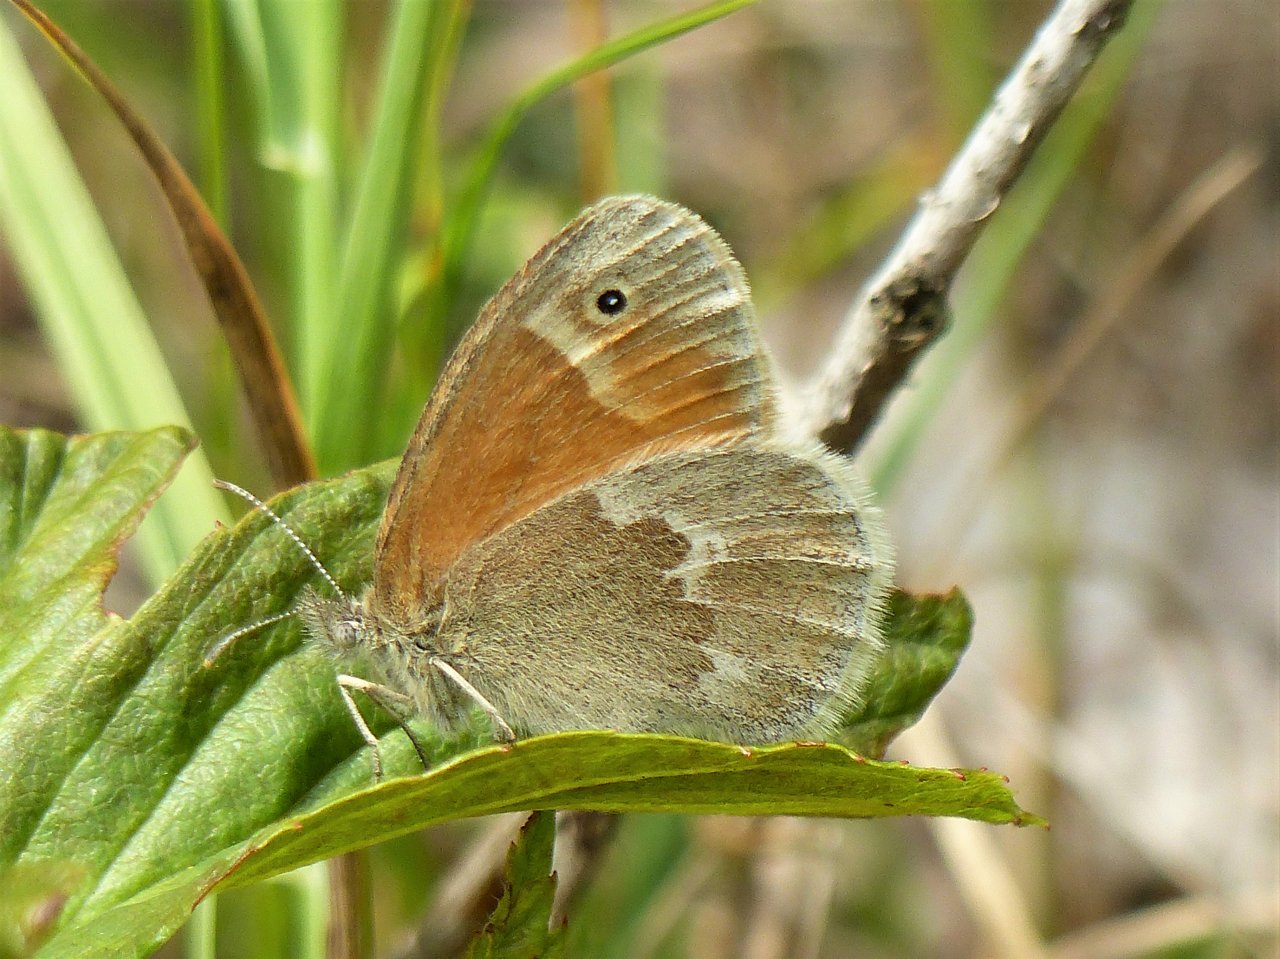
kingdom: Animalia
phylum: Arthropoda
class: Insecta
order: Lepidoptera
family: Nymphalidae
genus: Coenonympha
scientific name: Coenonympha tullia
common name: Large Heath
